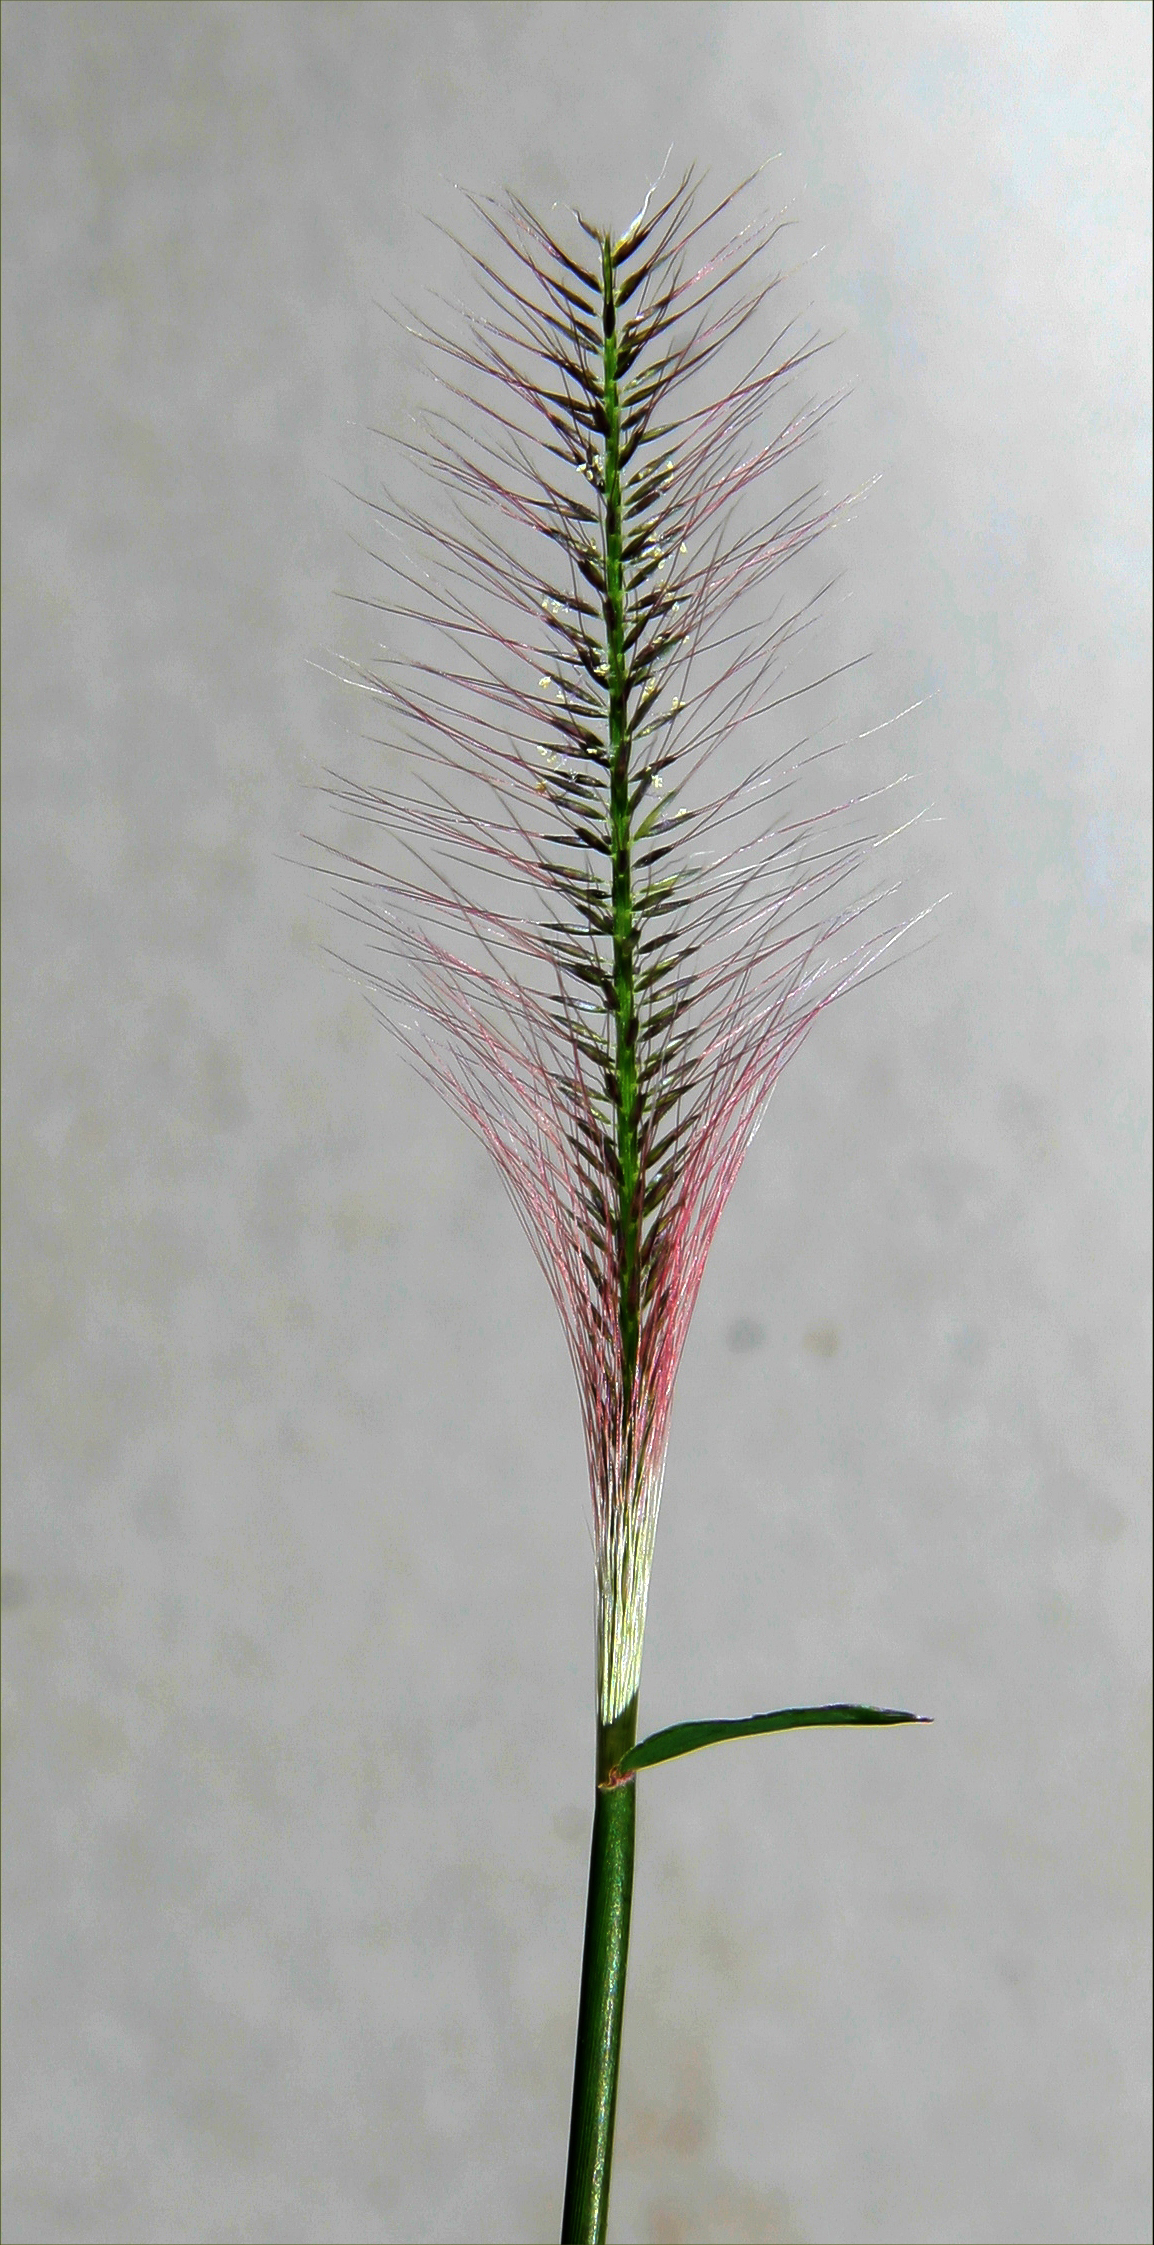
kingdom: Plantae
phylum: Tracheophyta
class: Liliopsida
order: Poales
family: Poaceae
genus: Perotis
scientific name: Perotis indica
